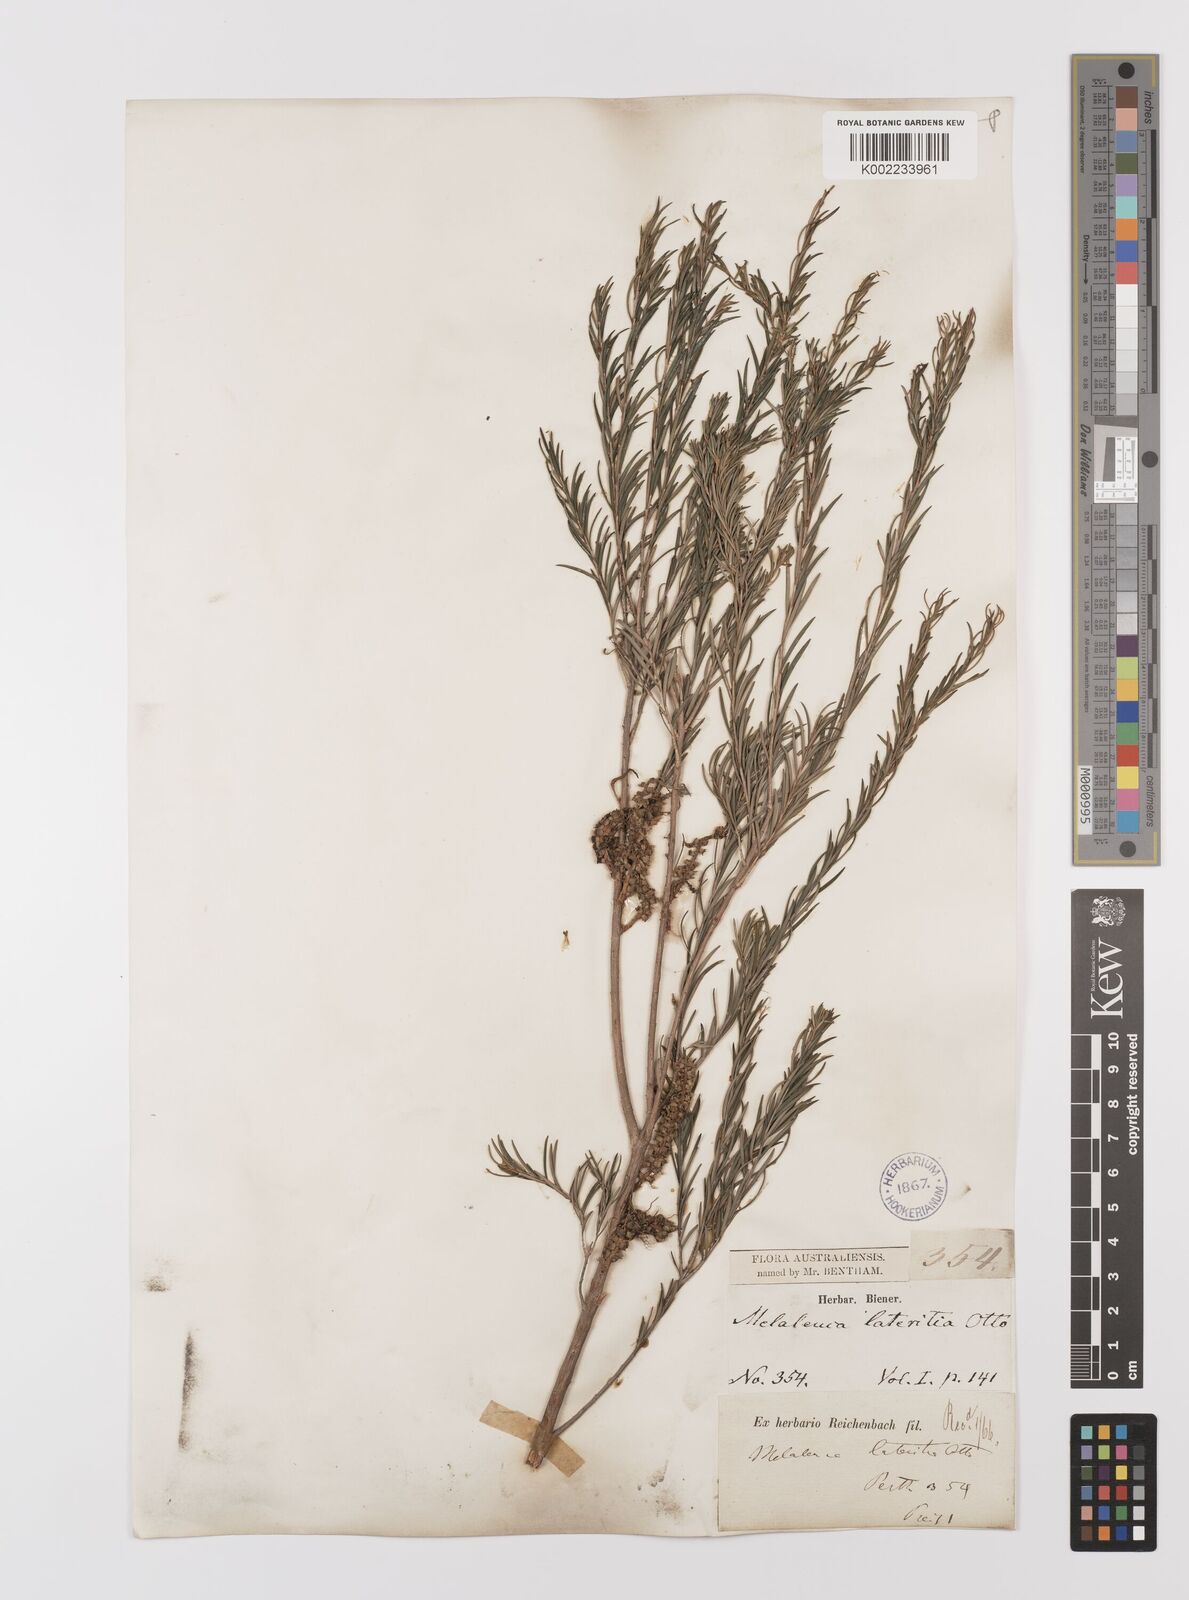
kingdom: Plantae
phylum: Tracheophyta
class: Magnoliopsida
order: Myrtales
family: Myrtaceae
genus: Melaleuca
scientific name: Melaleuca lateritia
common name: Robin red-breast
